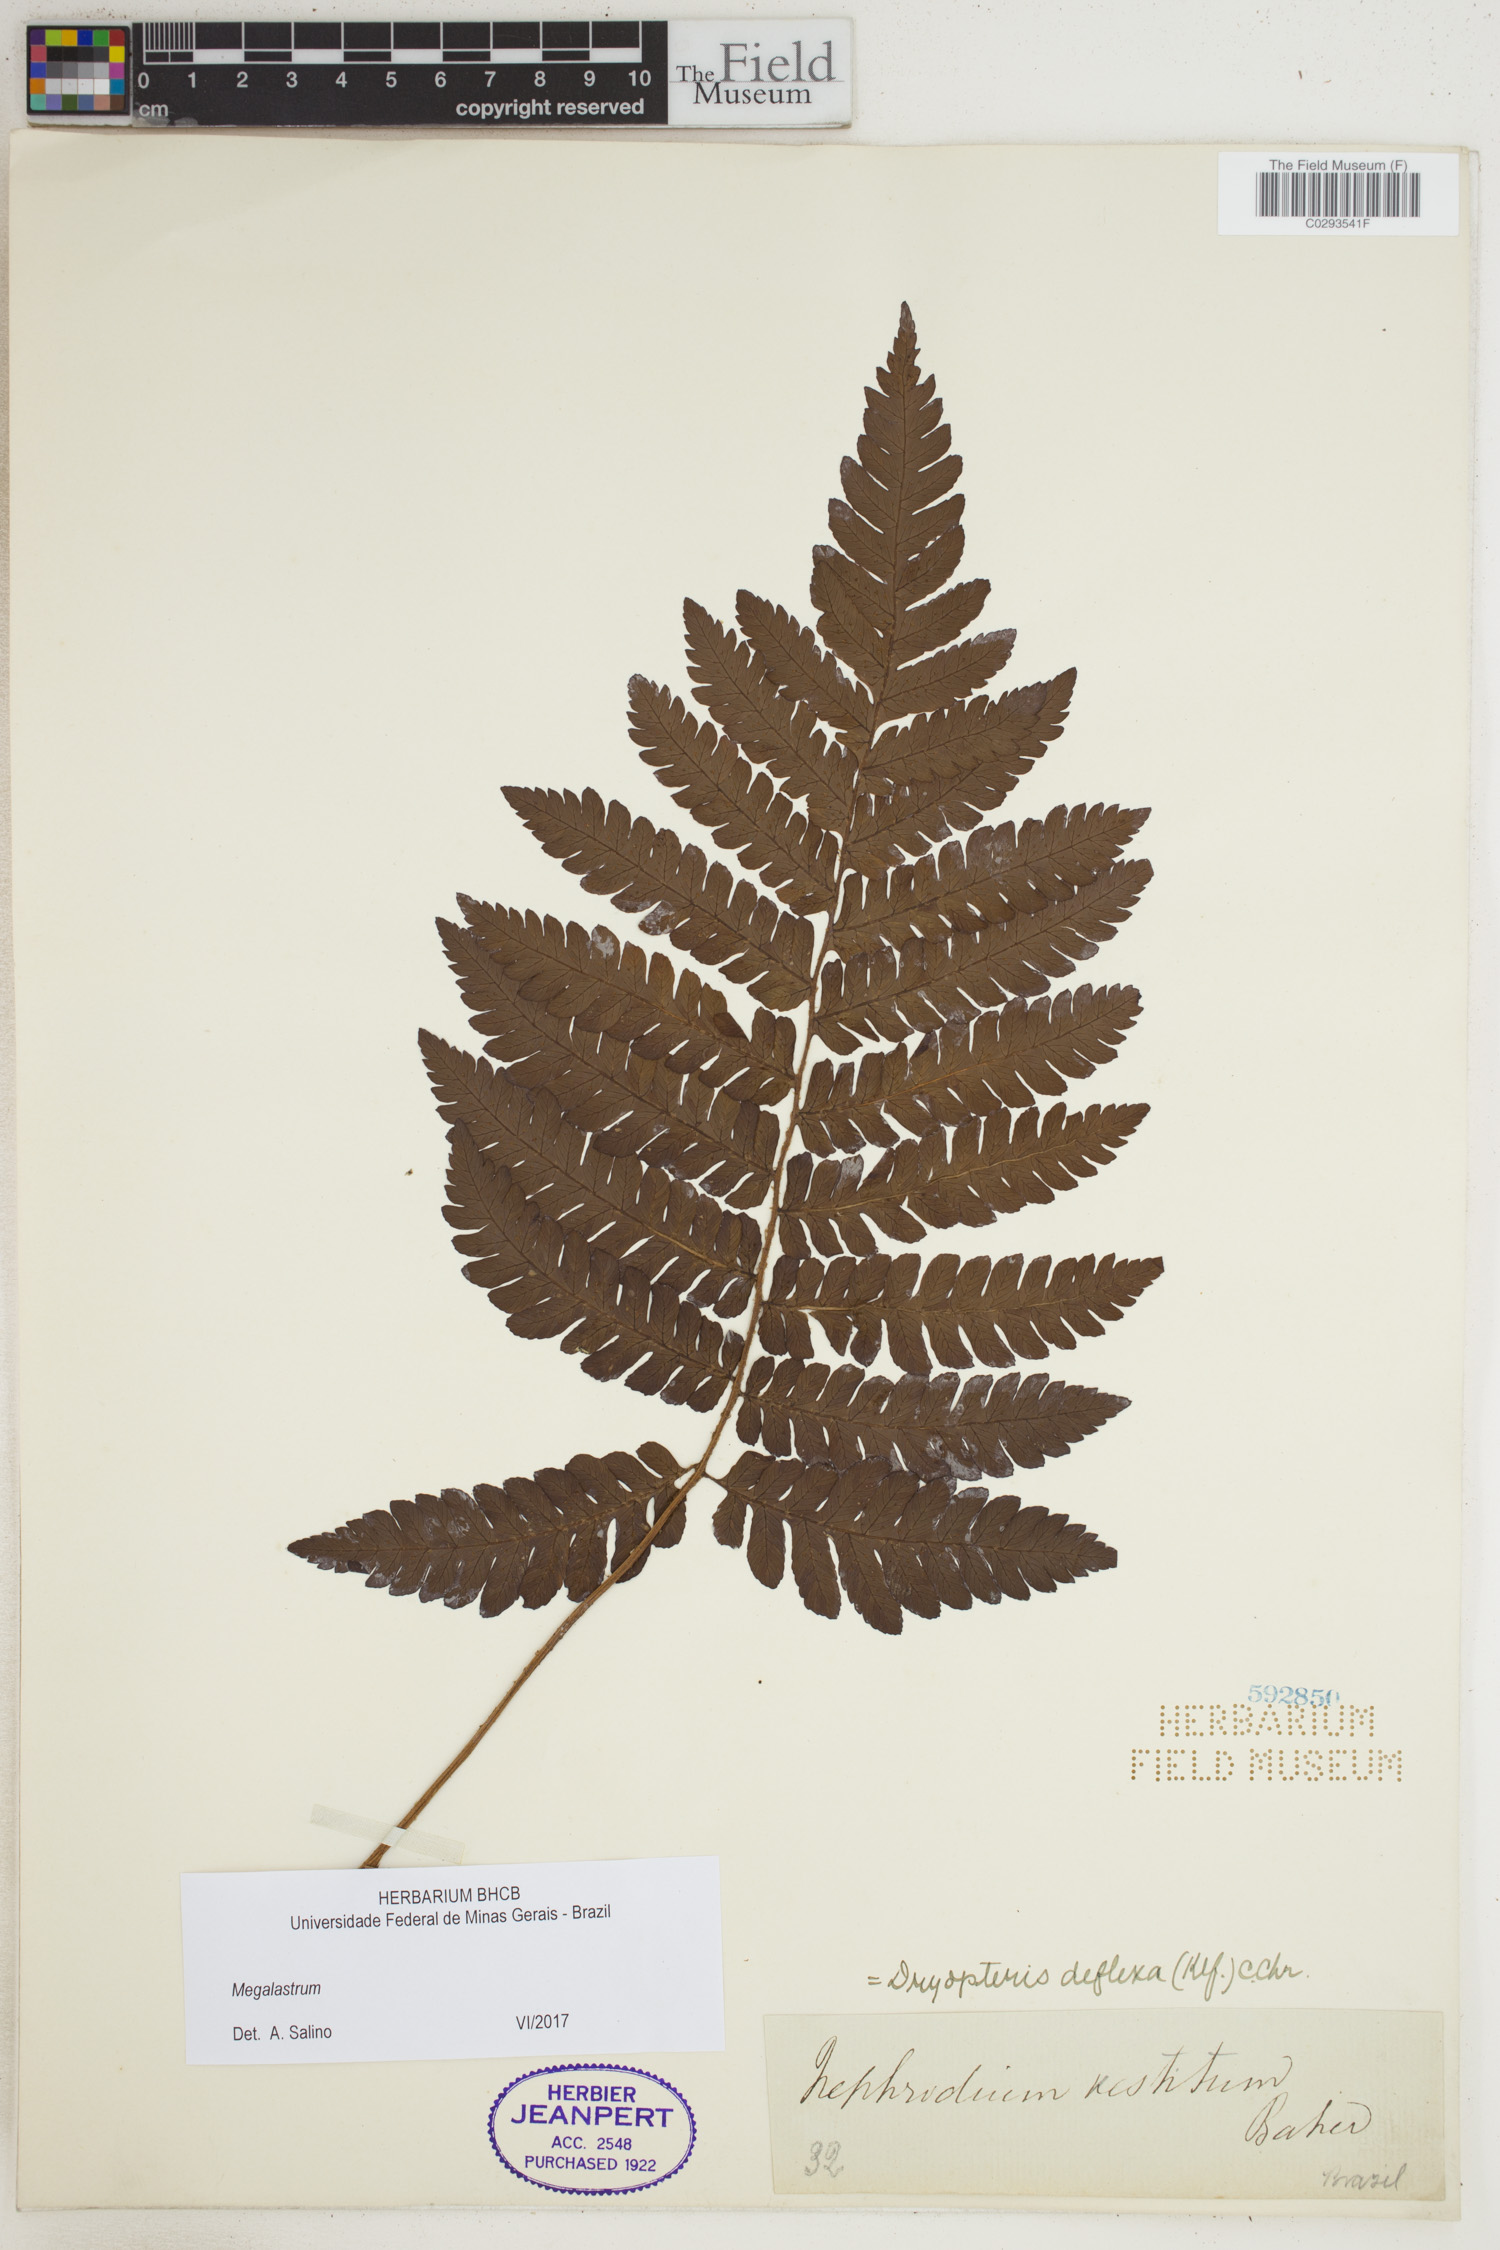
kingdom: Plantae
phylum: Tracheophyta
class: Polypodiopsida
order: Polypodiales
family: Dryopteridaceae
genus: Megalastrum
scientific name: Megalastrum
